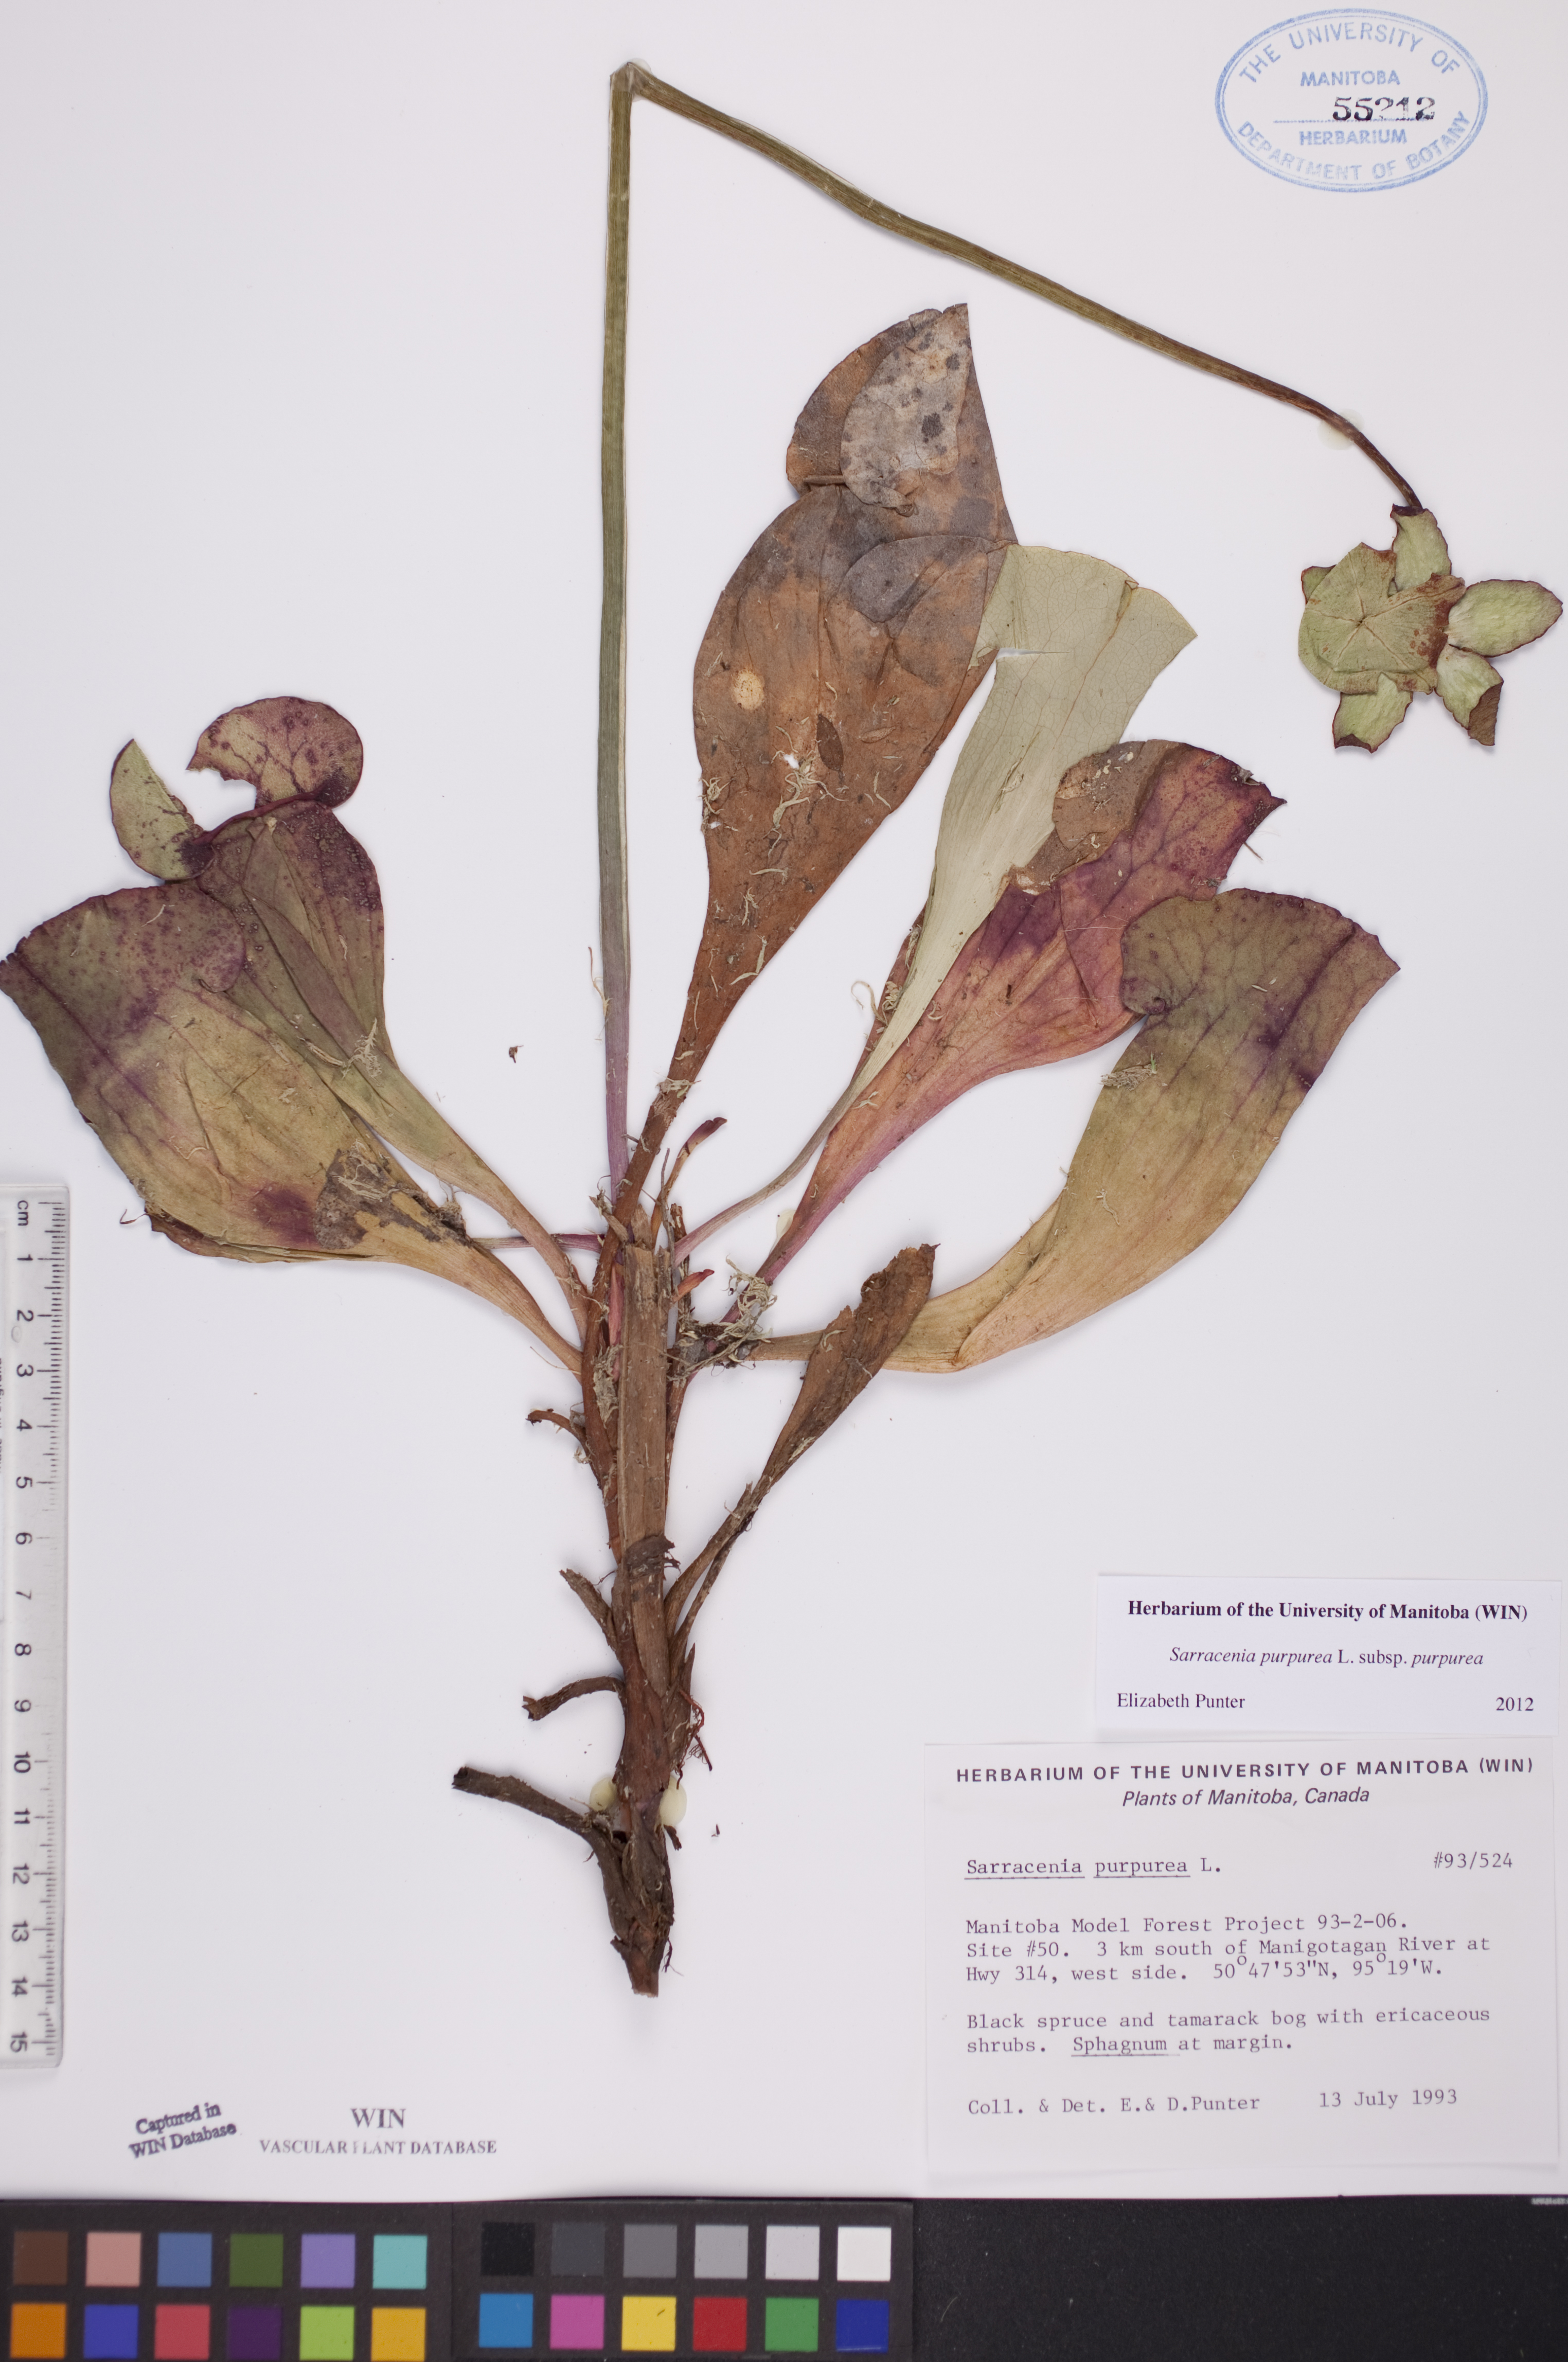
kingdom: Plantae
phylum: Tracheophyta
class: Magnoliopsida
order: Ericales
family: Sarraceniaceae
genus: Sarracenia
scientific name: Sarracenia purpurea
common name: Pitcherplant
